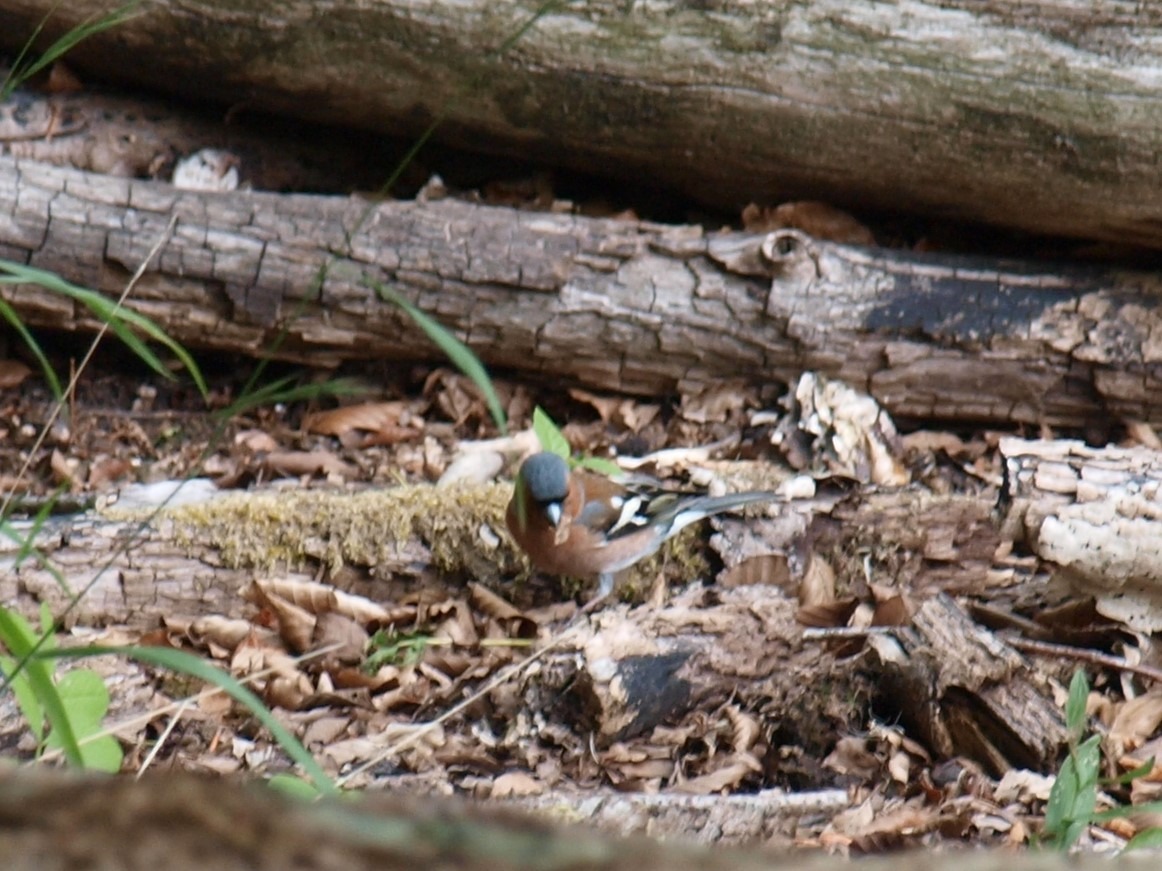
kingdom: Animalia
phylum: Chordata
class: Aves
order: Passeriformes
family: Fringillidae
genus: Fringilla
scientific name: Fringilla coelebs
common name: Bogfinke
